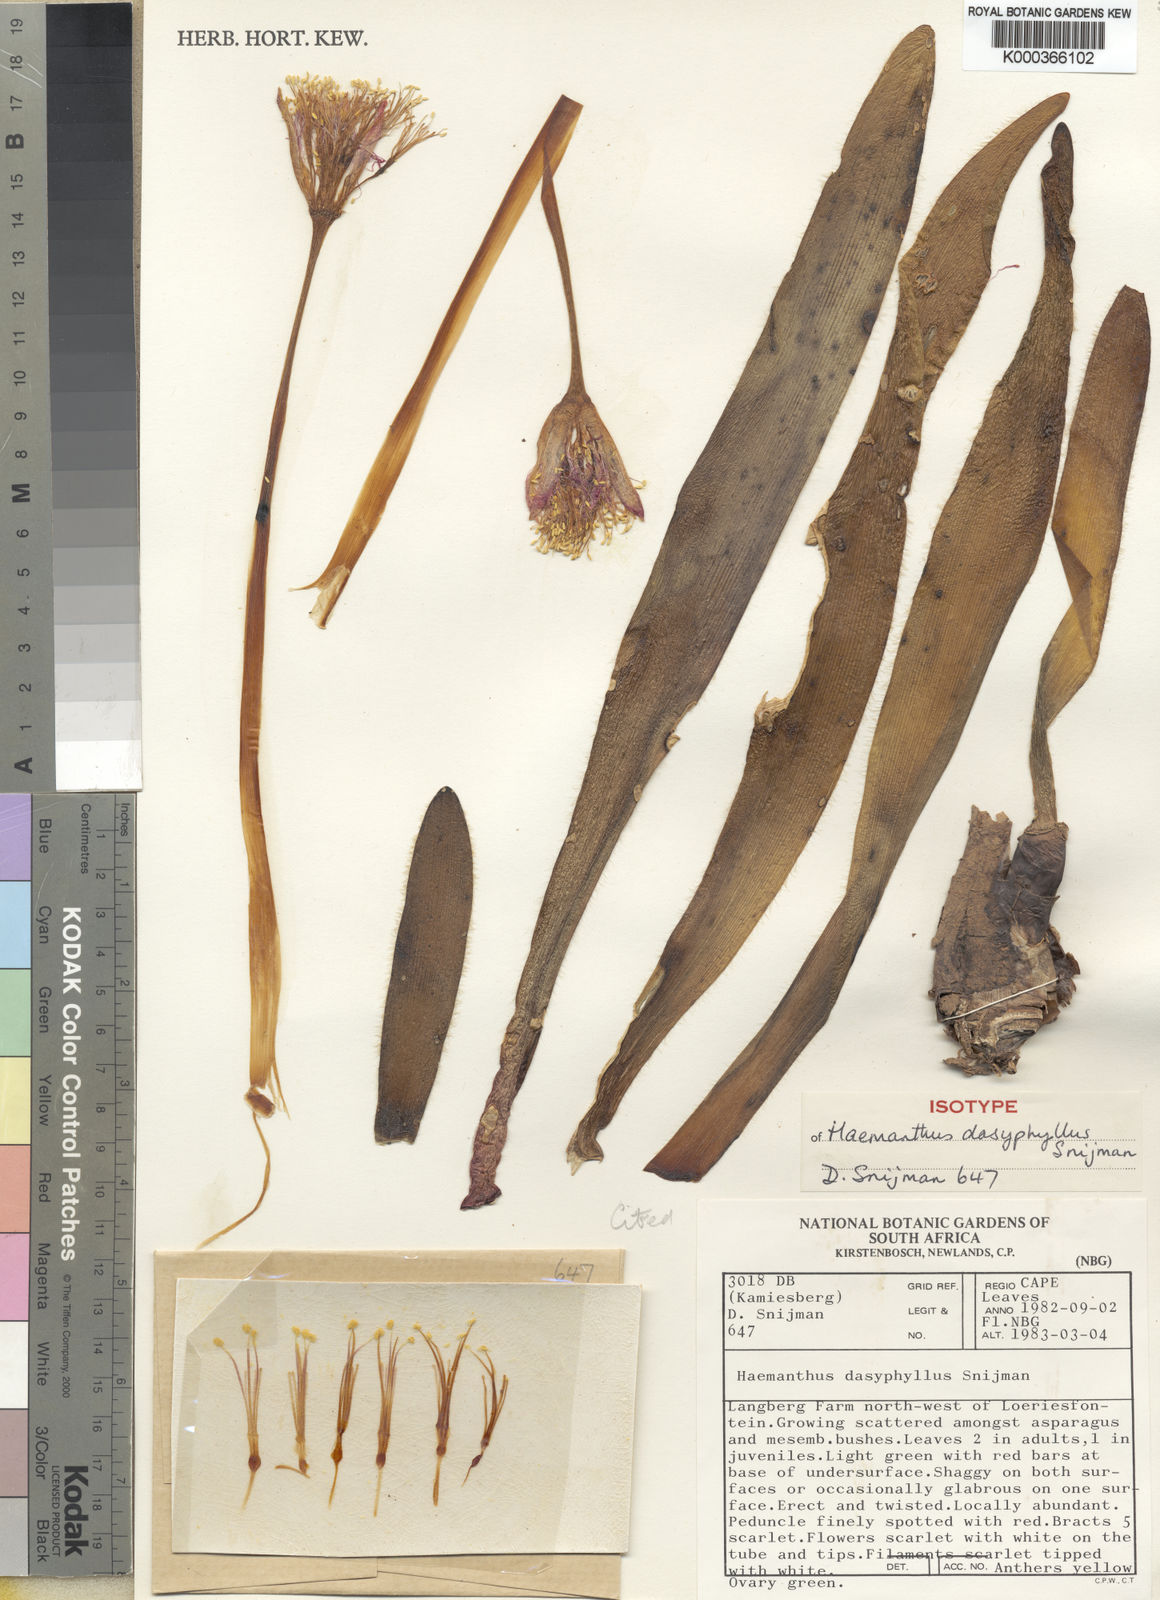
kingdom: Plantae
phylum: Tracheophyta
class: Liliopsida
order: Asparagales
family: Amaryllidaceae
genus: Haemanthus
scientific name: Haemanthus dasyphyllus
